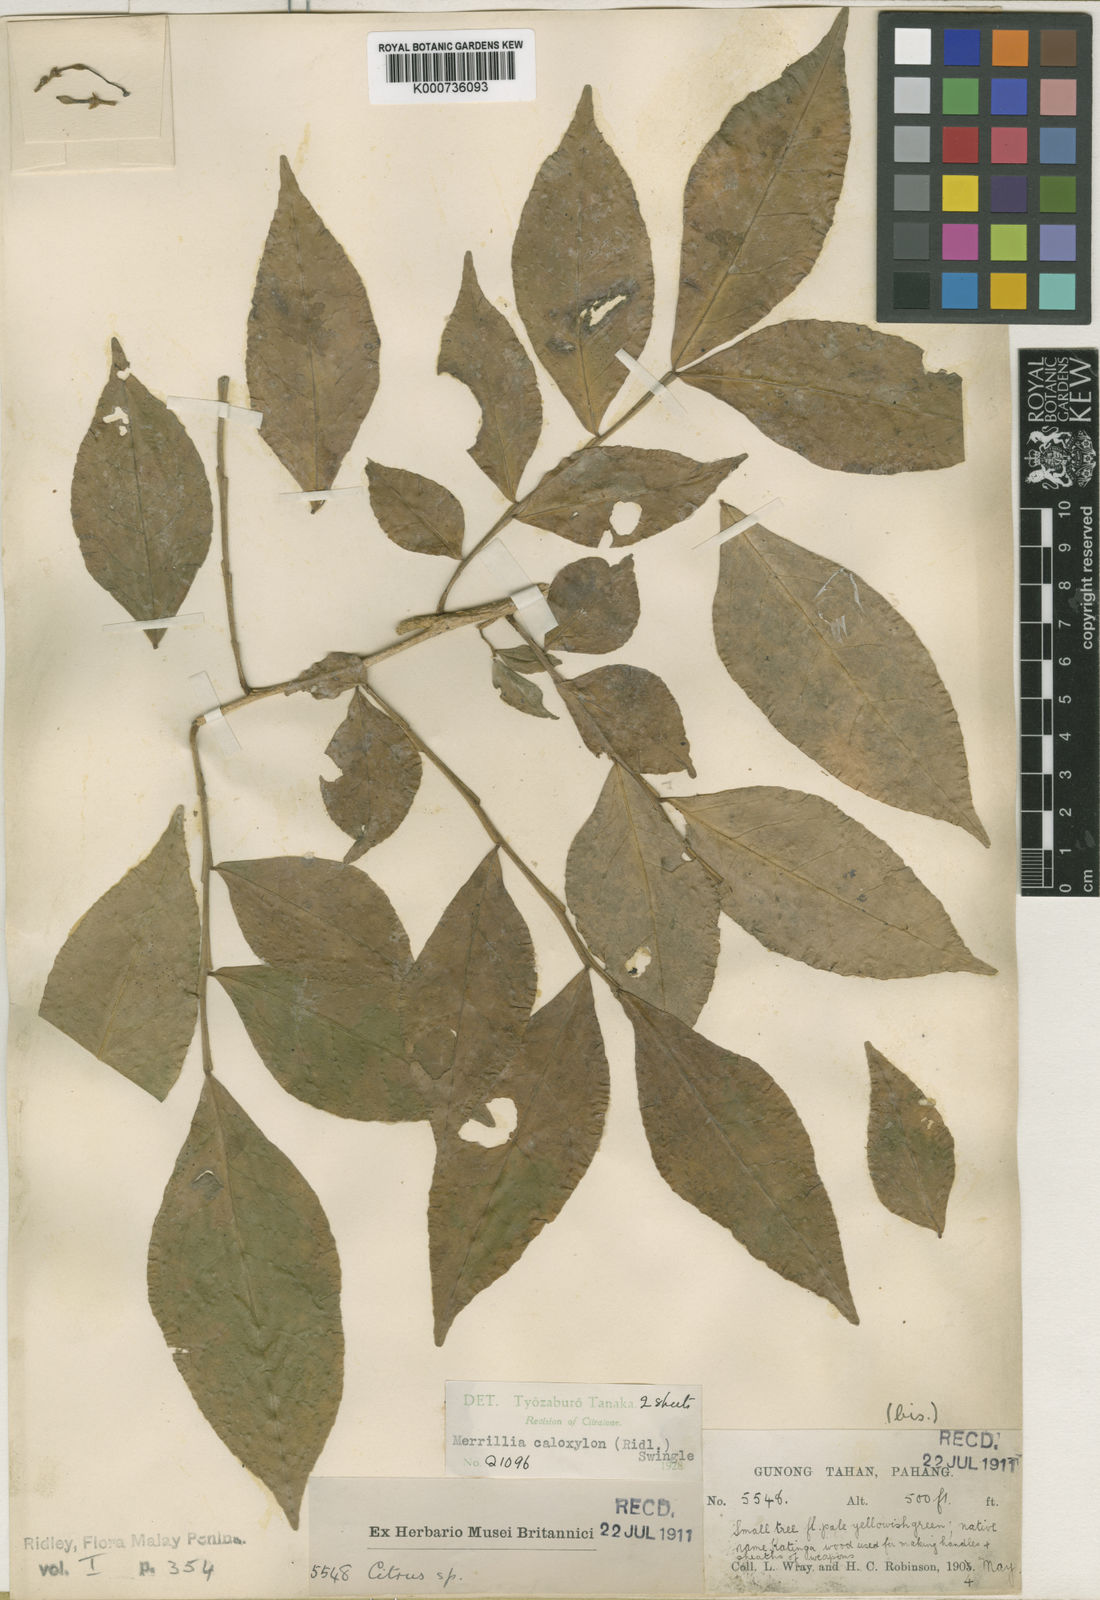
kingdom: Plantae
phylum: Tracheophyta
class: Magnoliopsida
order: Sapindales
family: Rutaceae
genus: Merrillia
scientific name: Merrillia caloxylon
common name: Katinga
